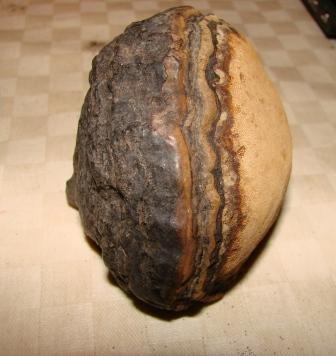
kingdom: Fungi
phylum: Basidiomycota
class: Agaricomycetes
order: Hymenochaetales
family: Hymenochaetaceae
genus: Phellinus
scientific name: Phellinus igniarius
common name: almindelig ildporesvamp
